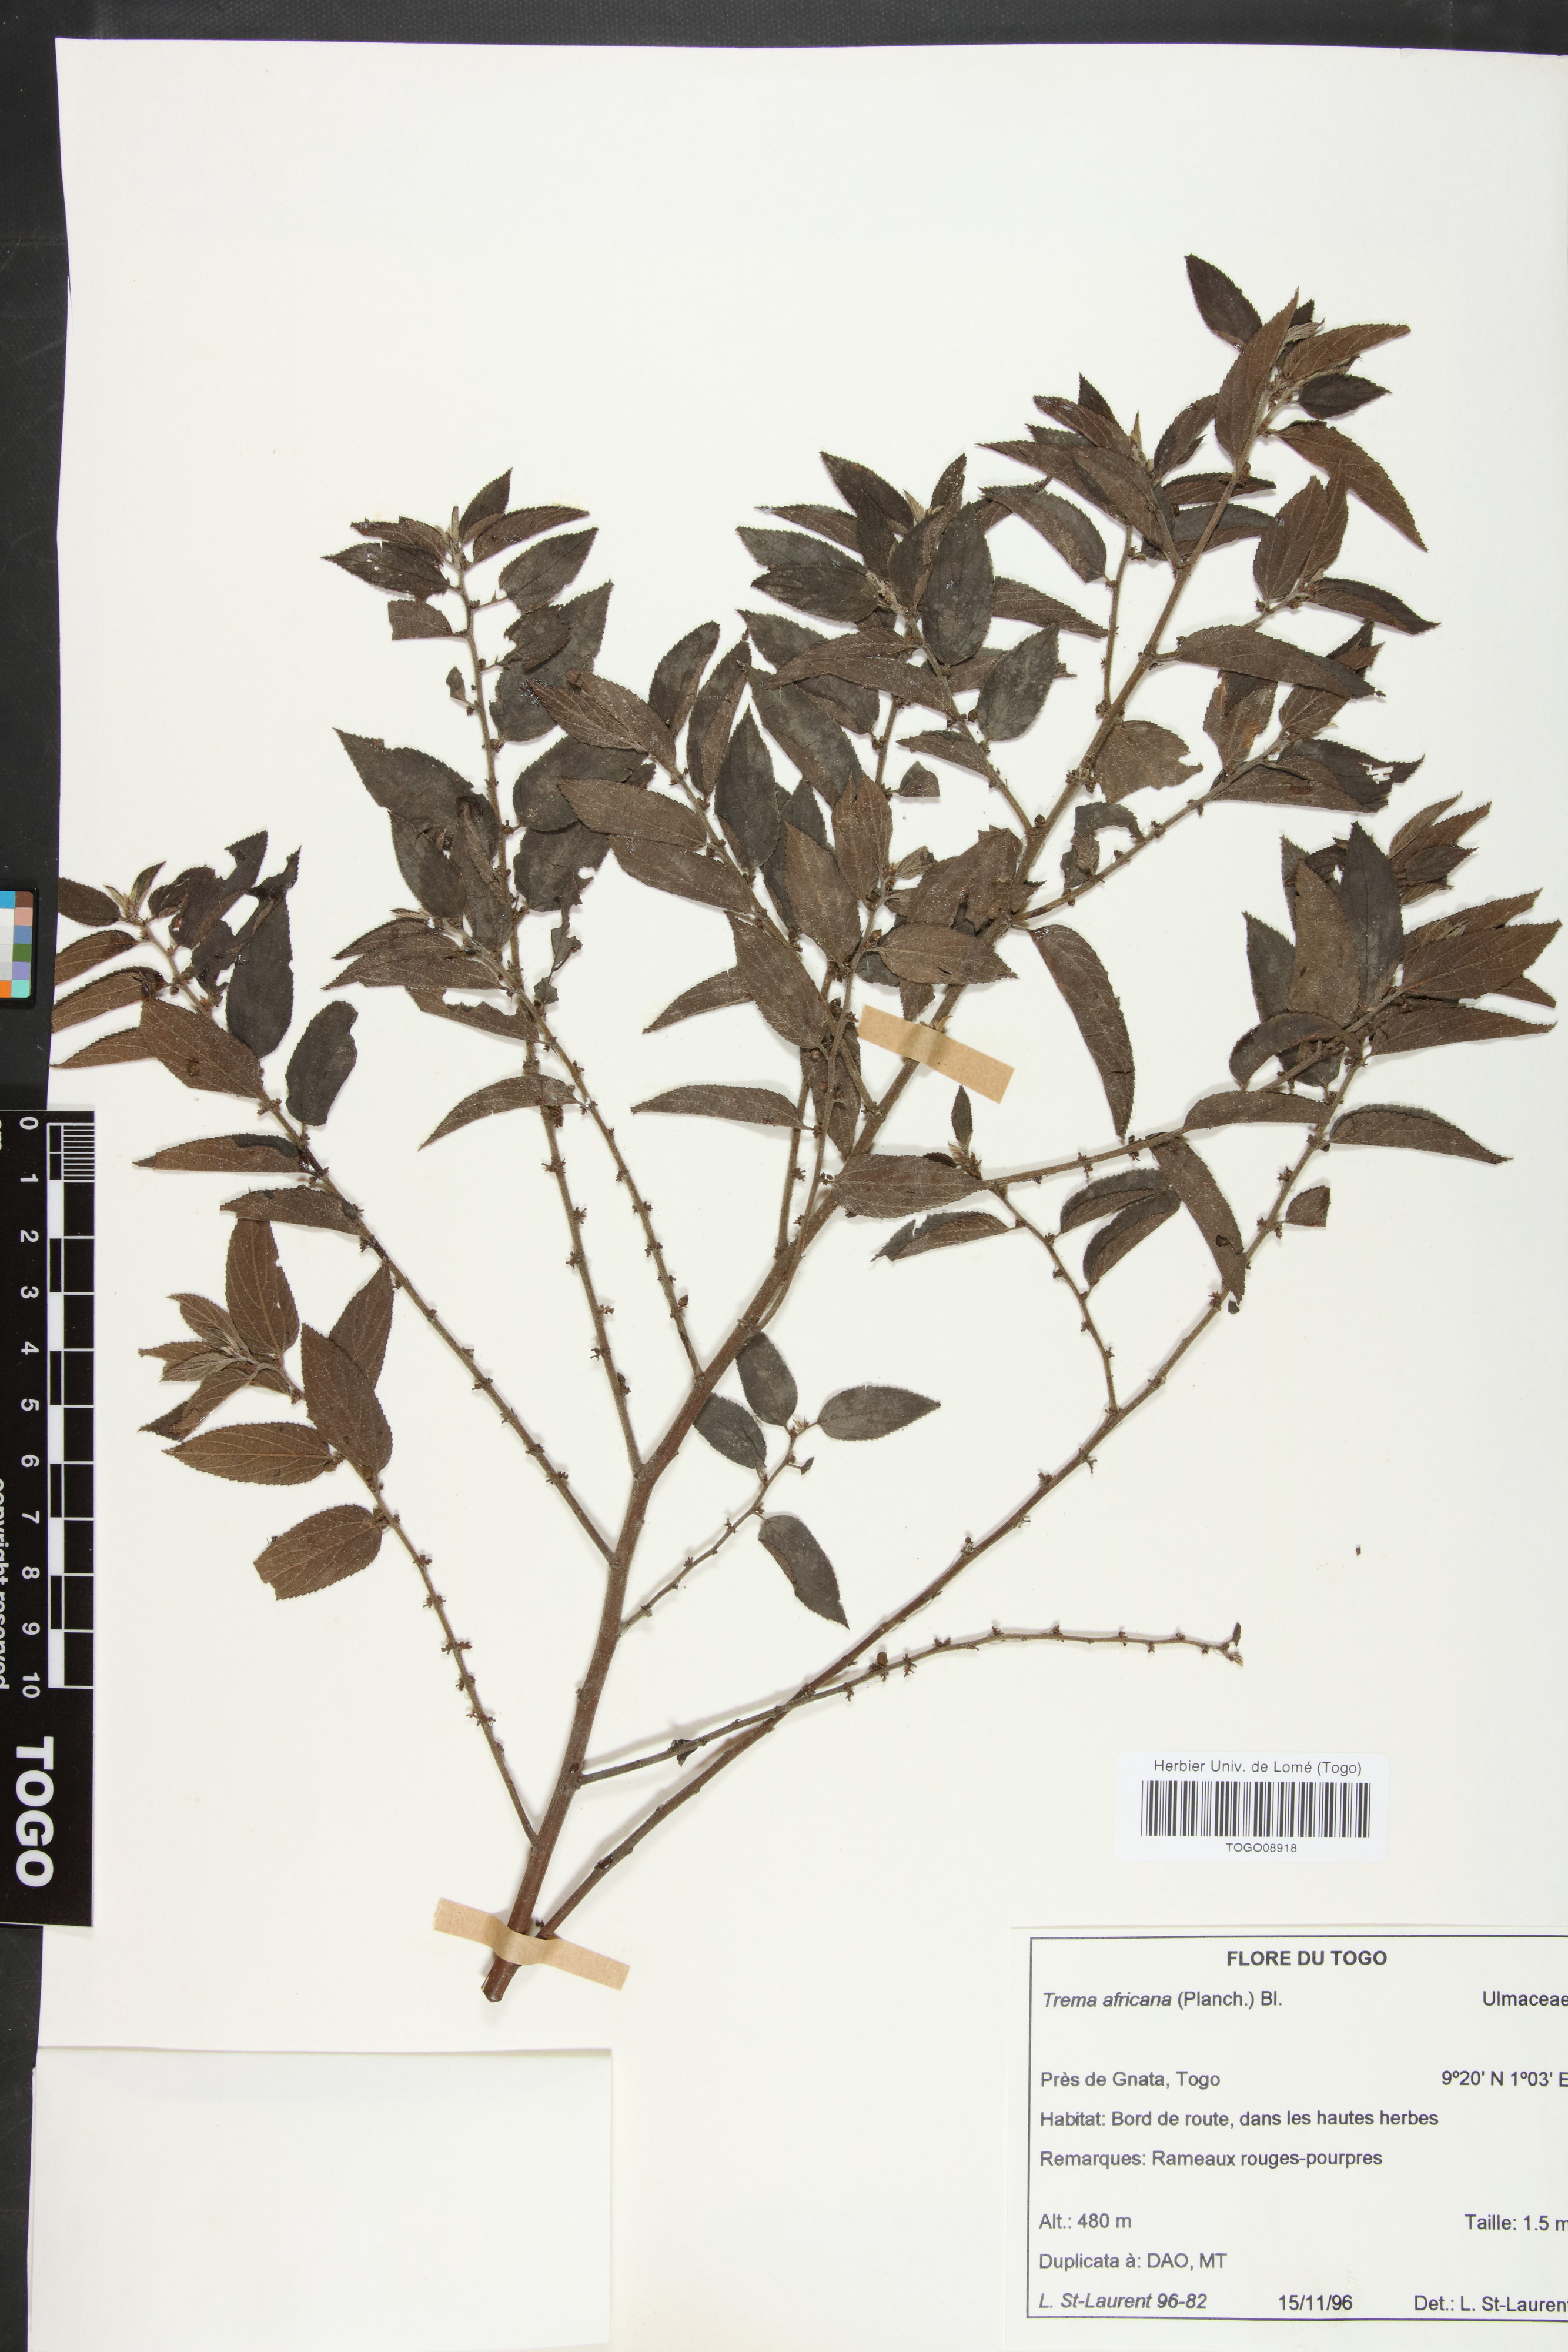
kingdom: Plantae
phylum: Tracheophyta
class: Magnoliopsida
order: Rosales
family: Cannabaceae
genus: Trema
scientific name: Trema orientale
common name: Indian charcoal tree
